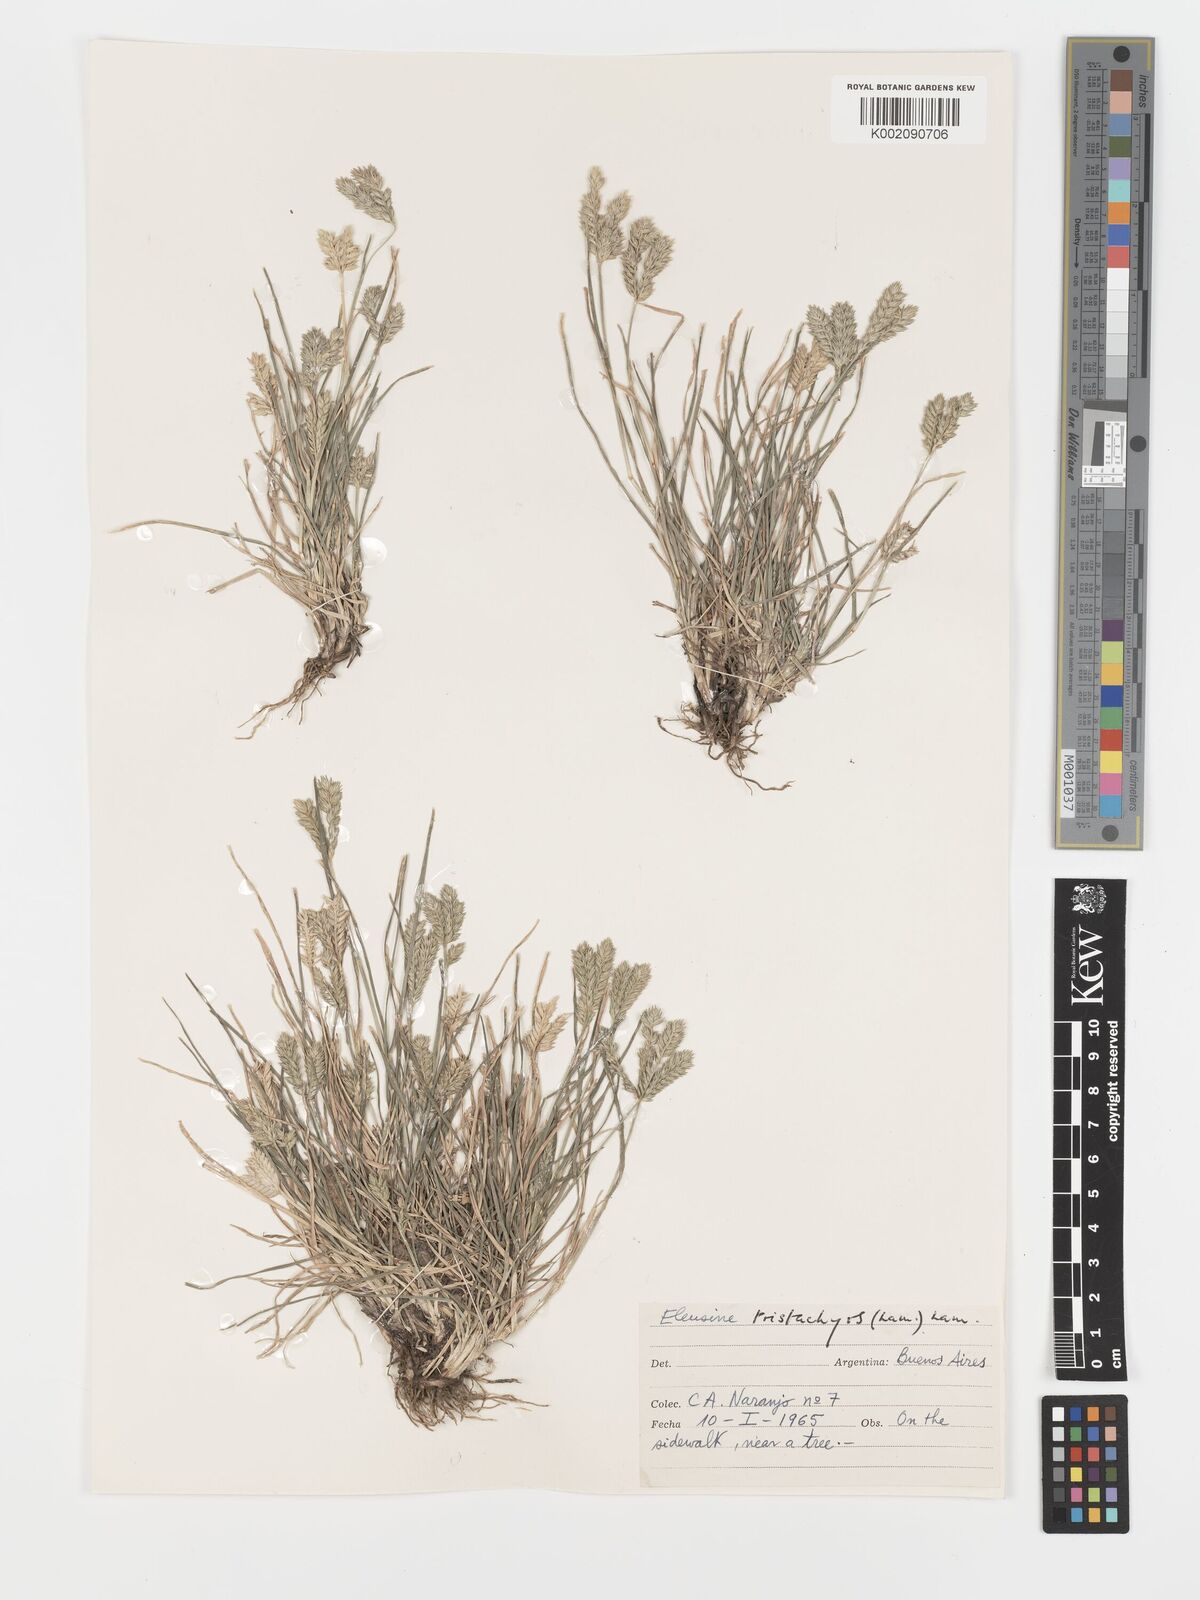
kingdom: Plantae
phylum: Tracheophyta
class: Liliopsida
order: Poales
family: Poaceae
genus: Eleusine
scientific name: Eleusine tristachya
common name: American yard-grass
